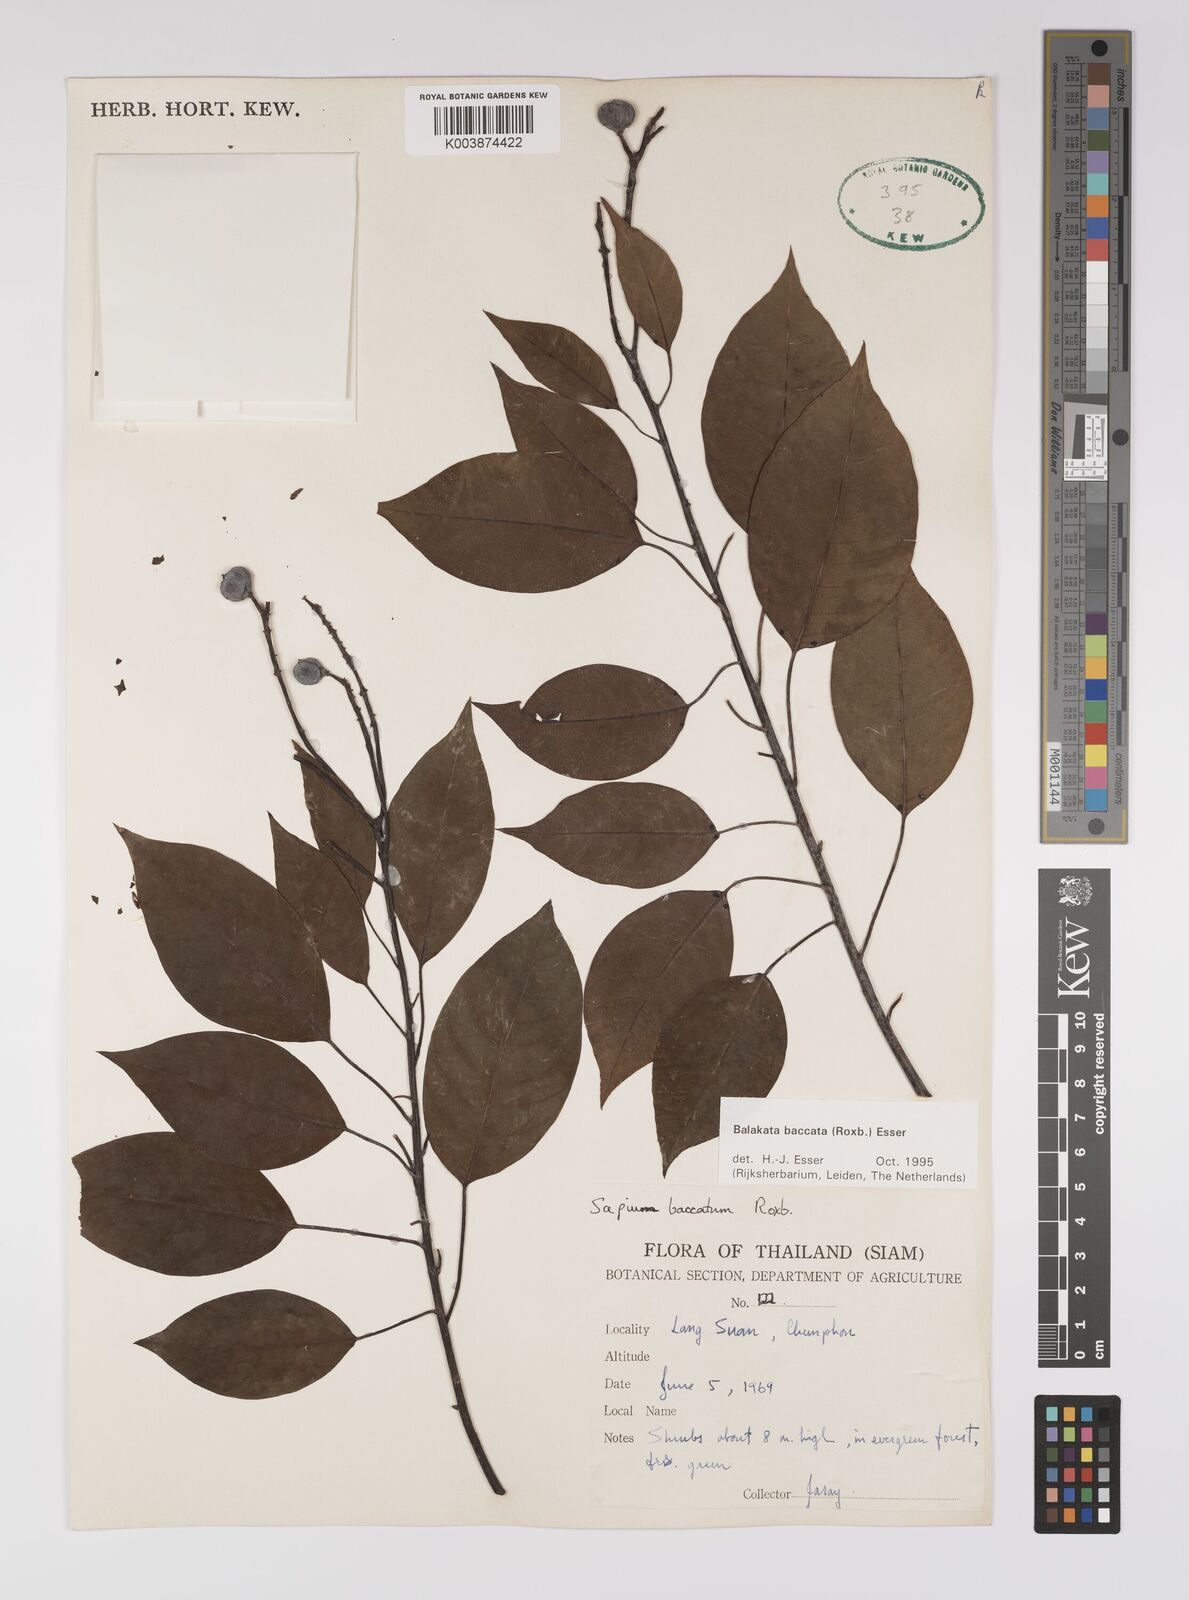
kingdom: Plantae
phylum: Tracheophyta
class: Magnoliopsida
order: Malpighiales
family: Euphorbiaceae
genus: Balakata
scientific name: Balakata baccata
